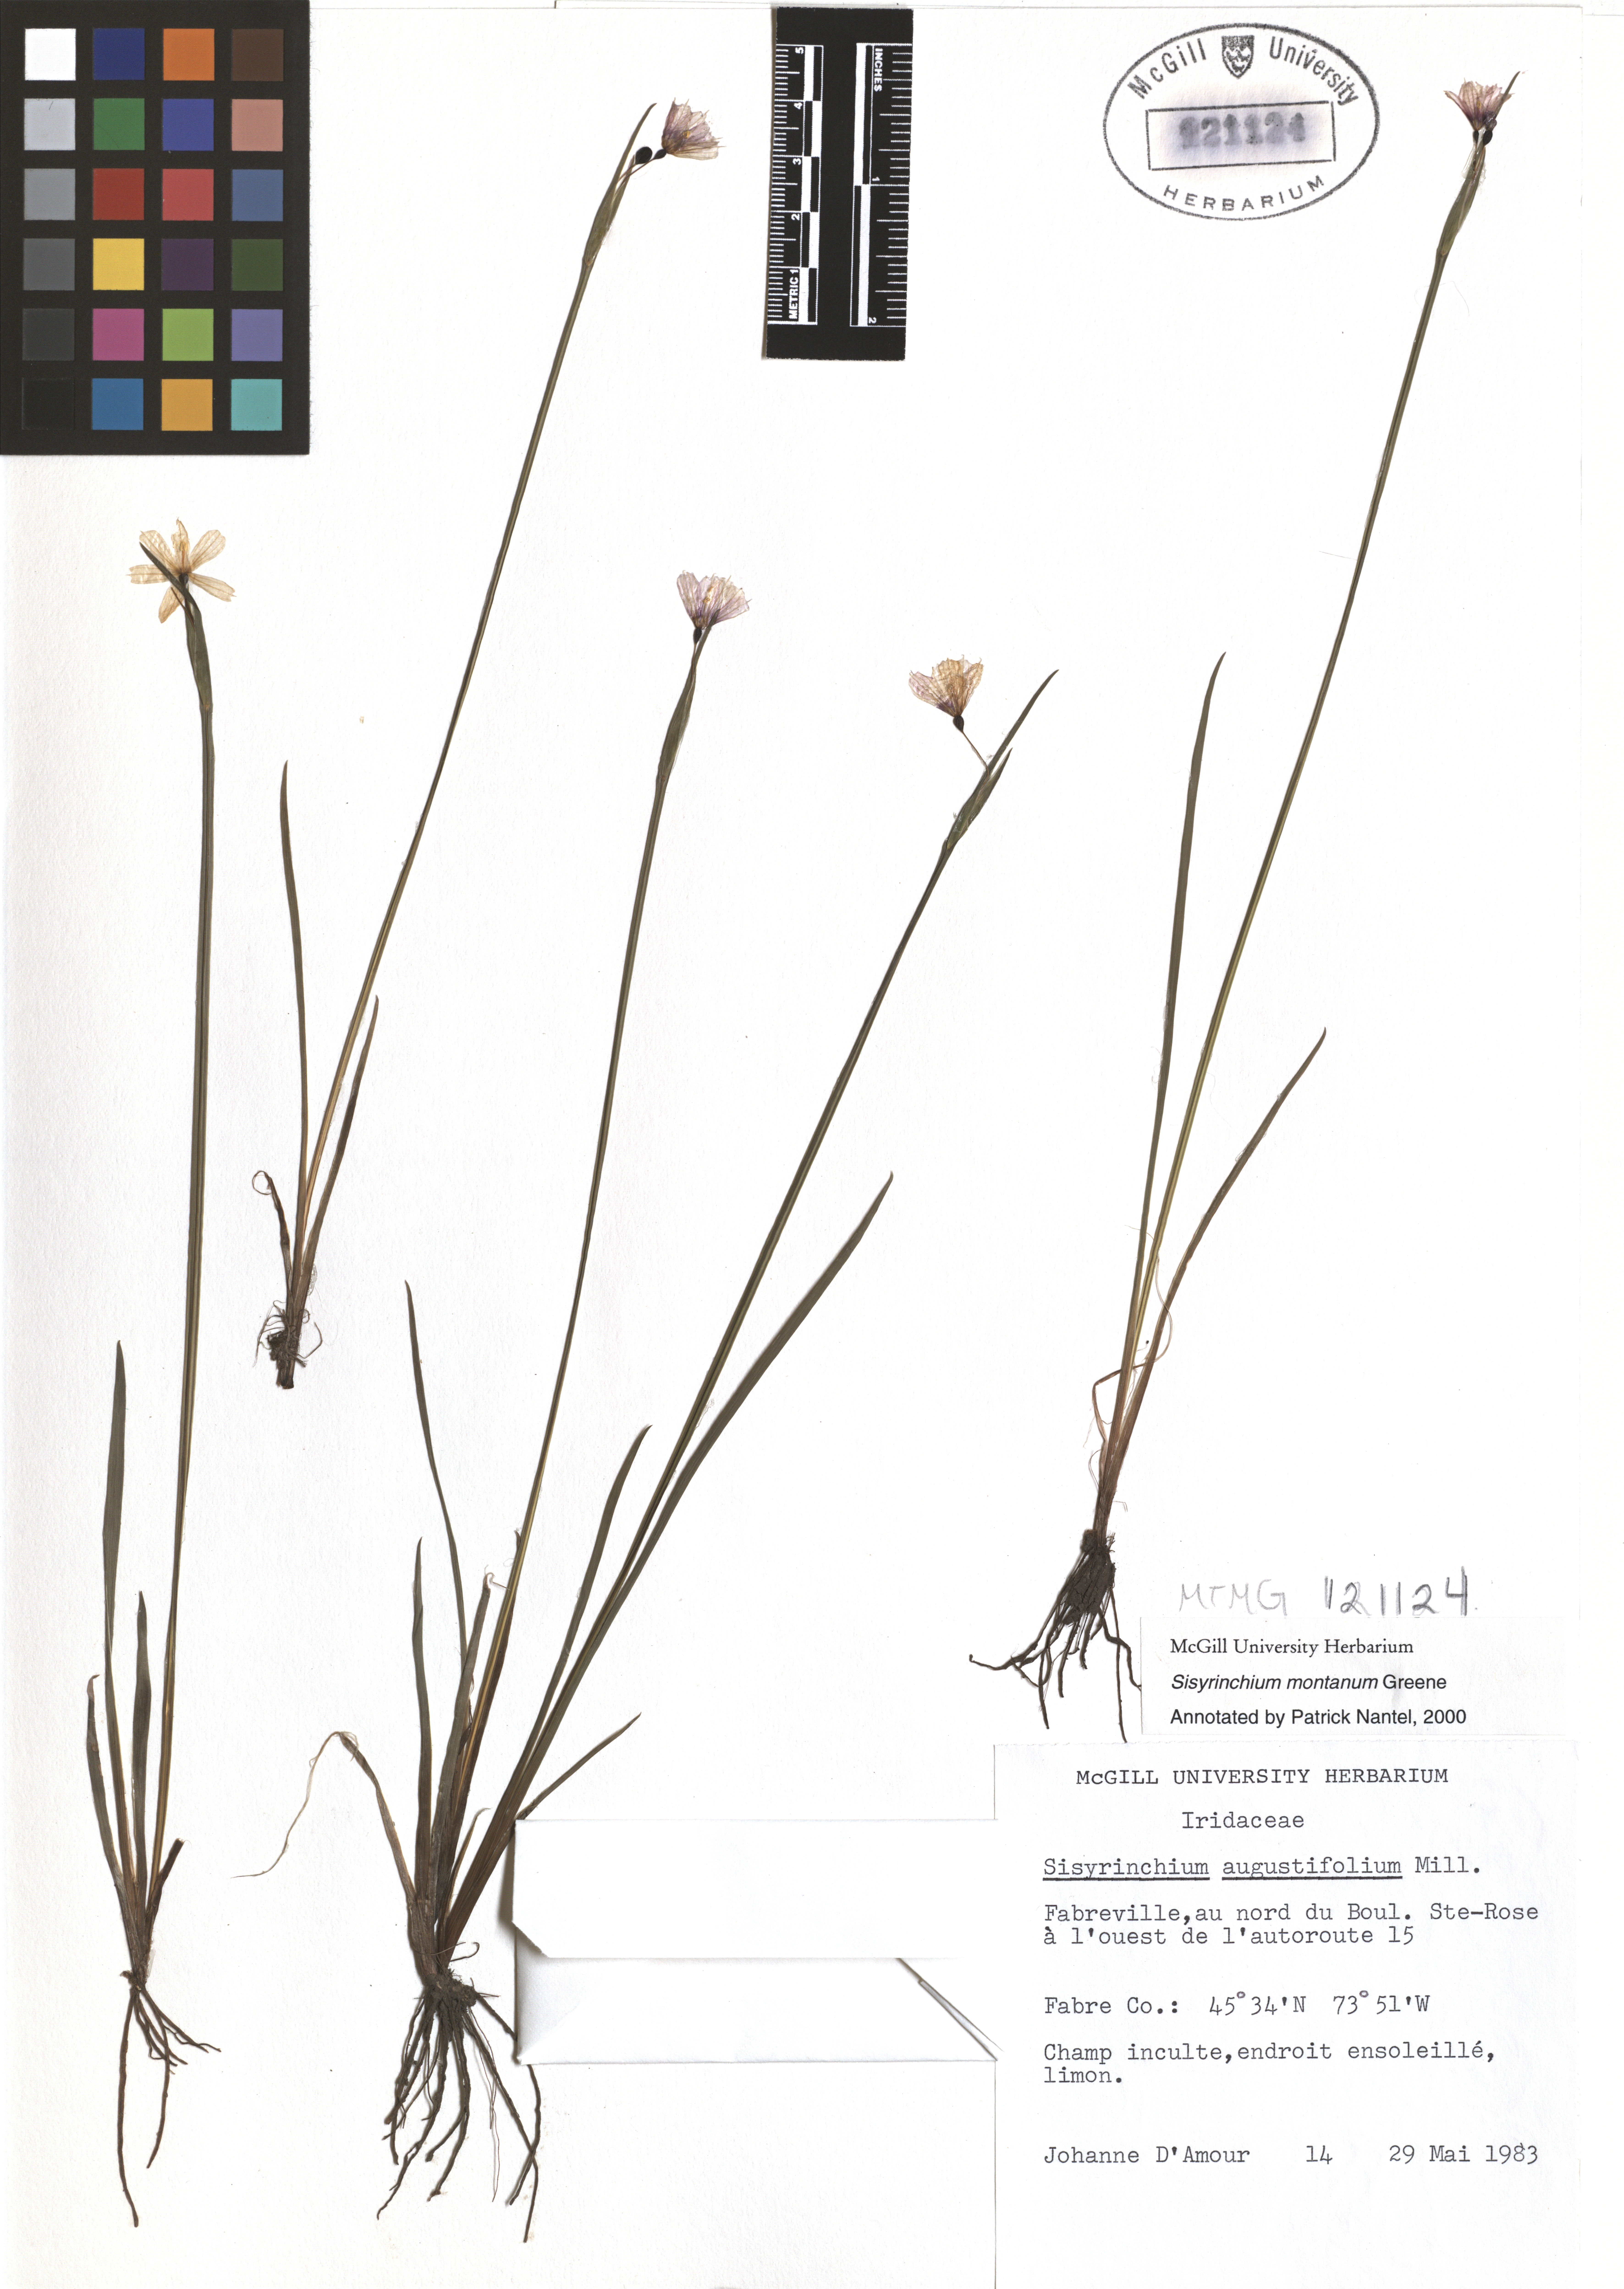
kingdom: Plantae
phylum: Tracheophyta
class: Liliopsida
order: Asparagales
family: Iridaceae
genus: Sisyrinchium
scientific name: Sisyrinchium montanum
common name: American blue-eyed-grass
